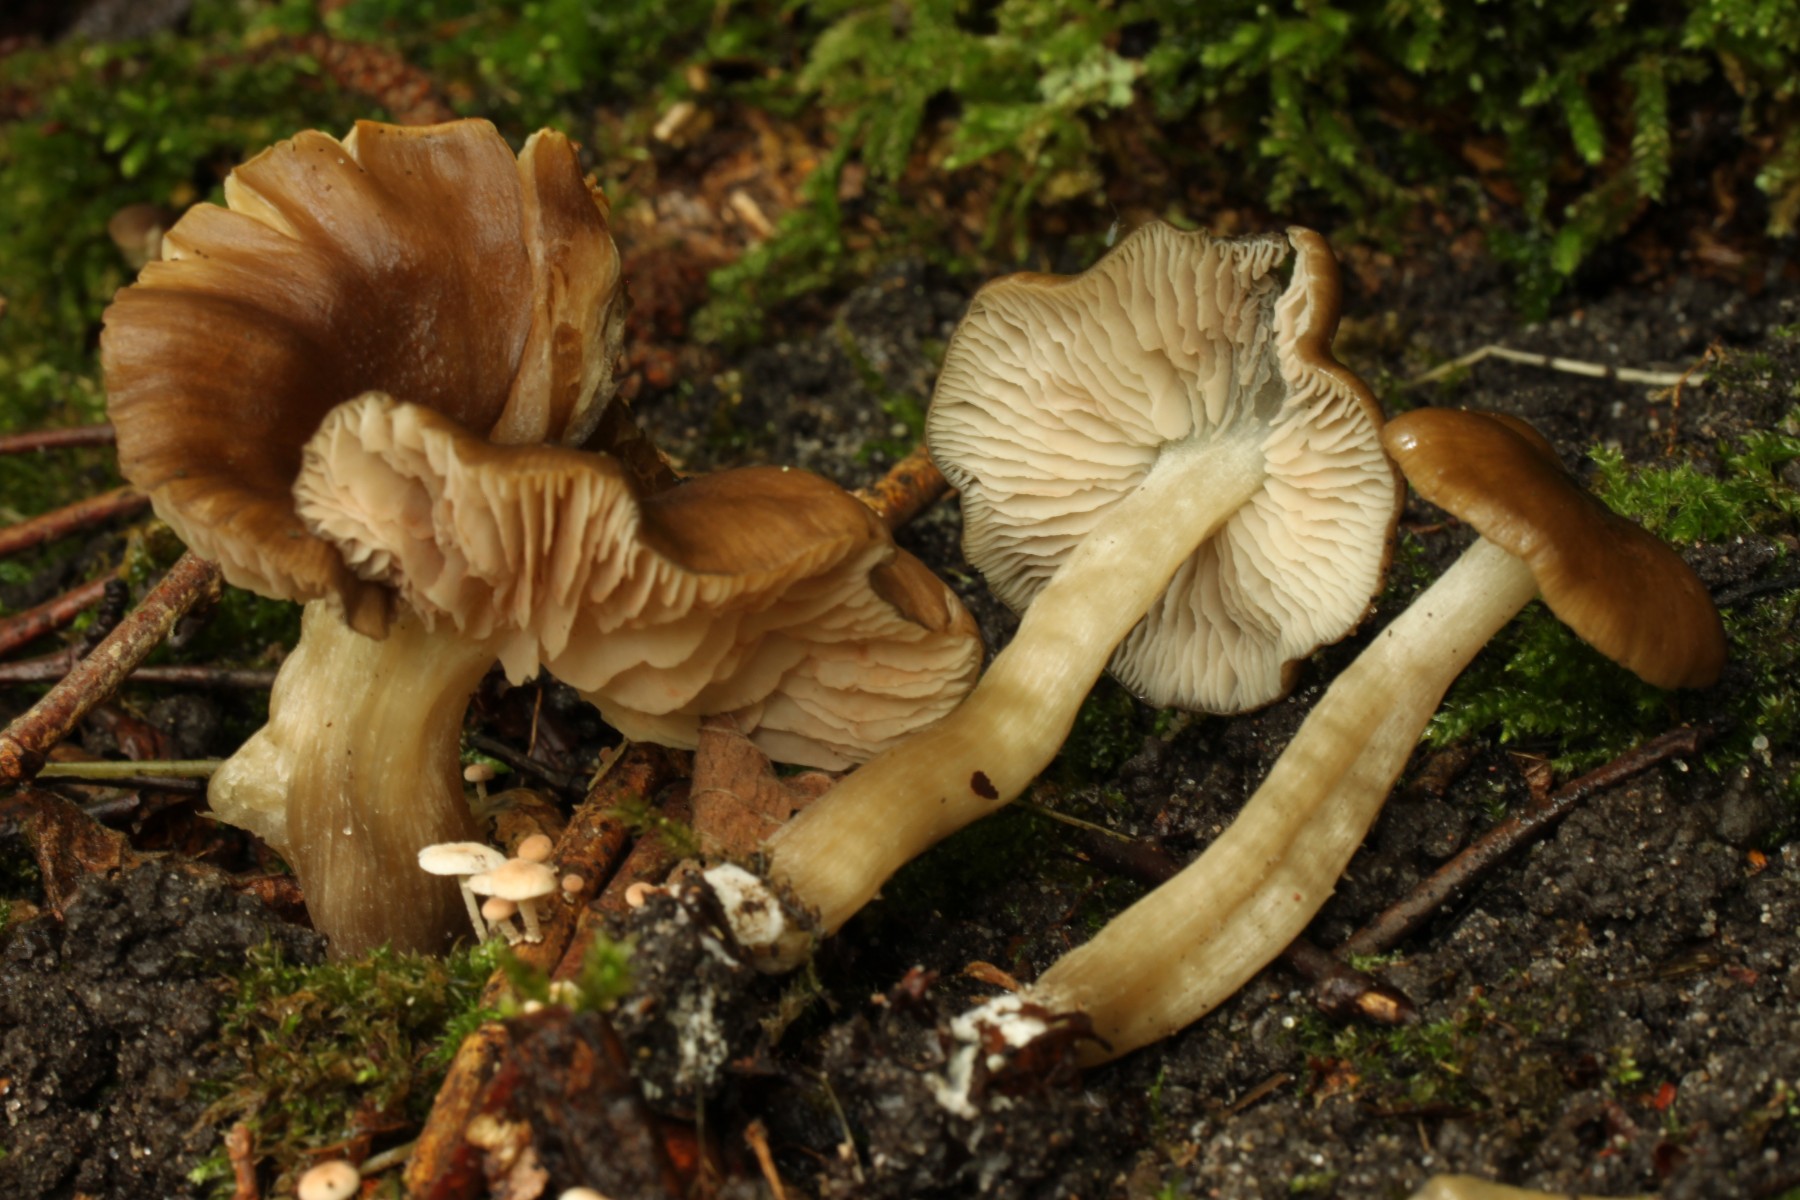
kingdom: Fungi
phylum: Basidiomycota
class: Agaricomycetes
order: Agaricales
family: Entolomataceae
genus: Entoloma
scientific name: Entoloma
